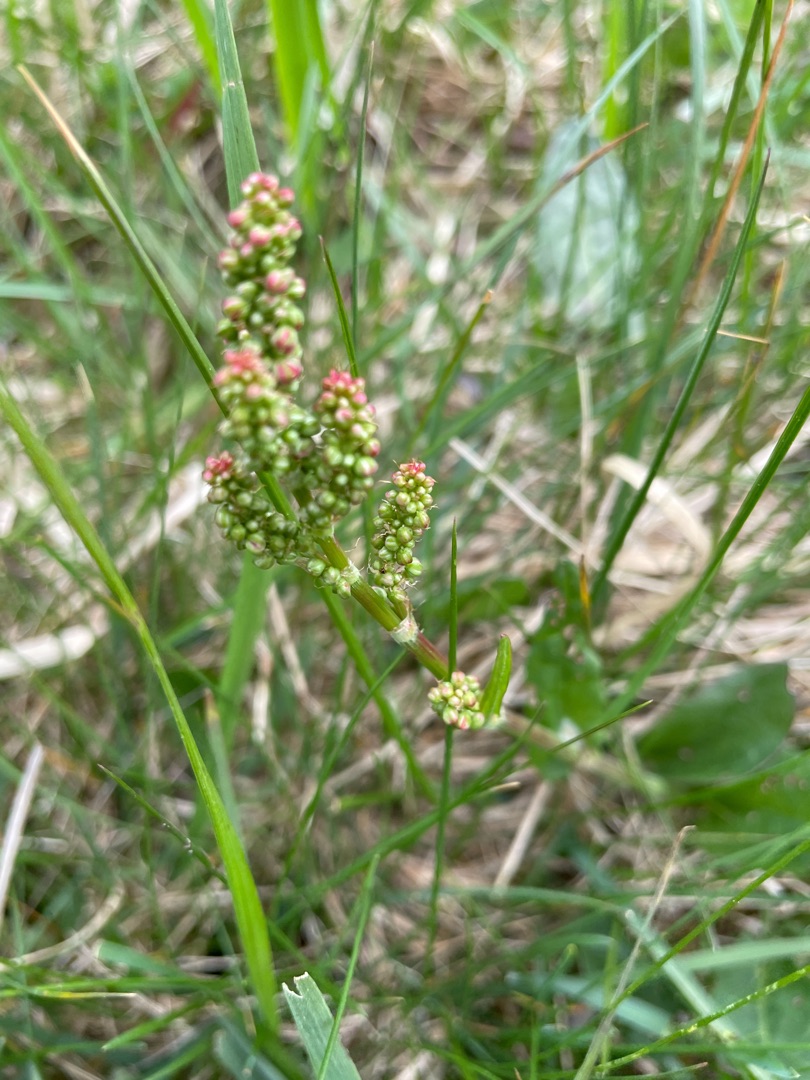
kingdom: Plantae
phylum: Tracheophyta
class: Magnoliopsida
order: Caryophyllales
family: Polygonaceae
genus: Rumex
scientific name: Rumex acetosa
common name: Almindelig syre
